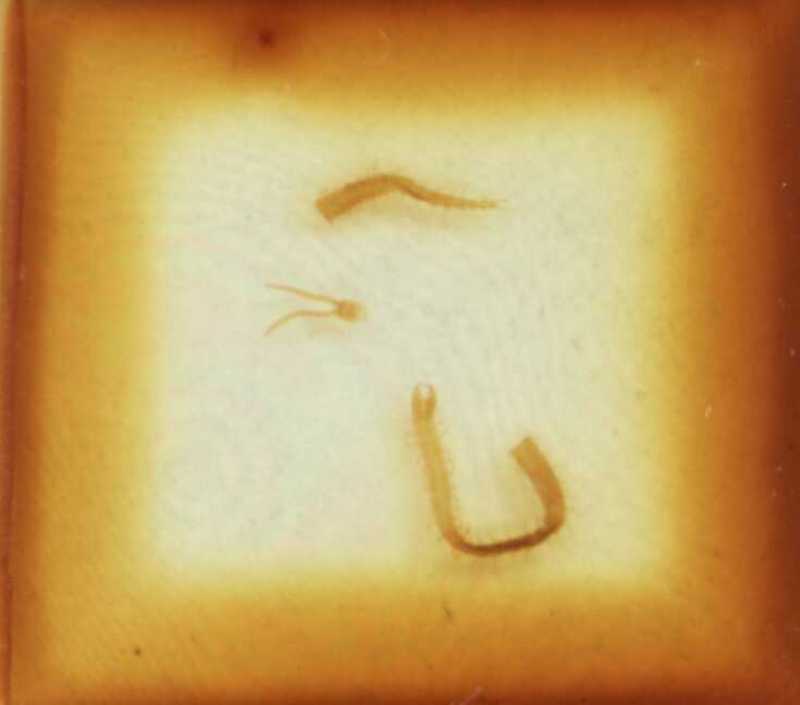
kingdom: Animalia
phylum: Arthropoda
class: Chilopoda
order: Geophilomorpha
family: Geophilidae
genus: Geophilus
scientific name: Geophilus bobolianus
